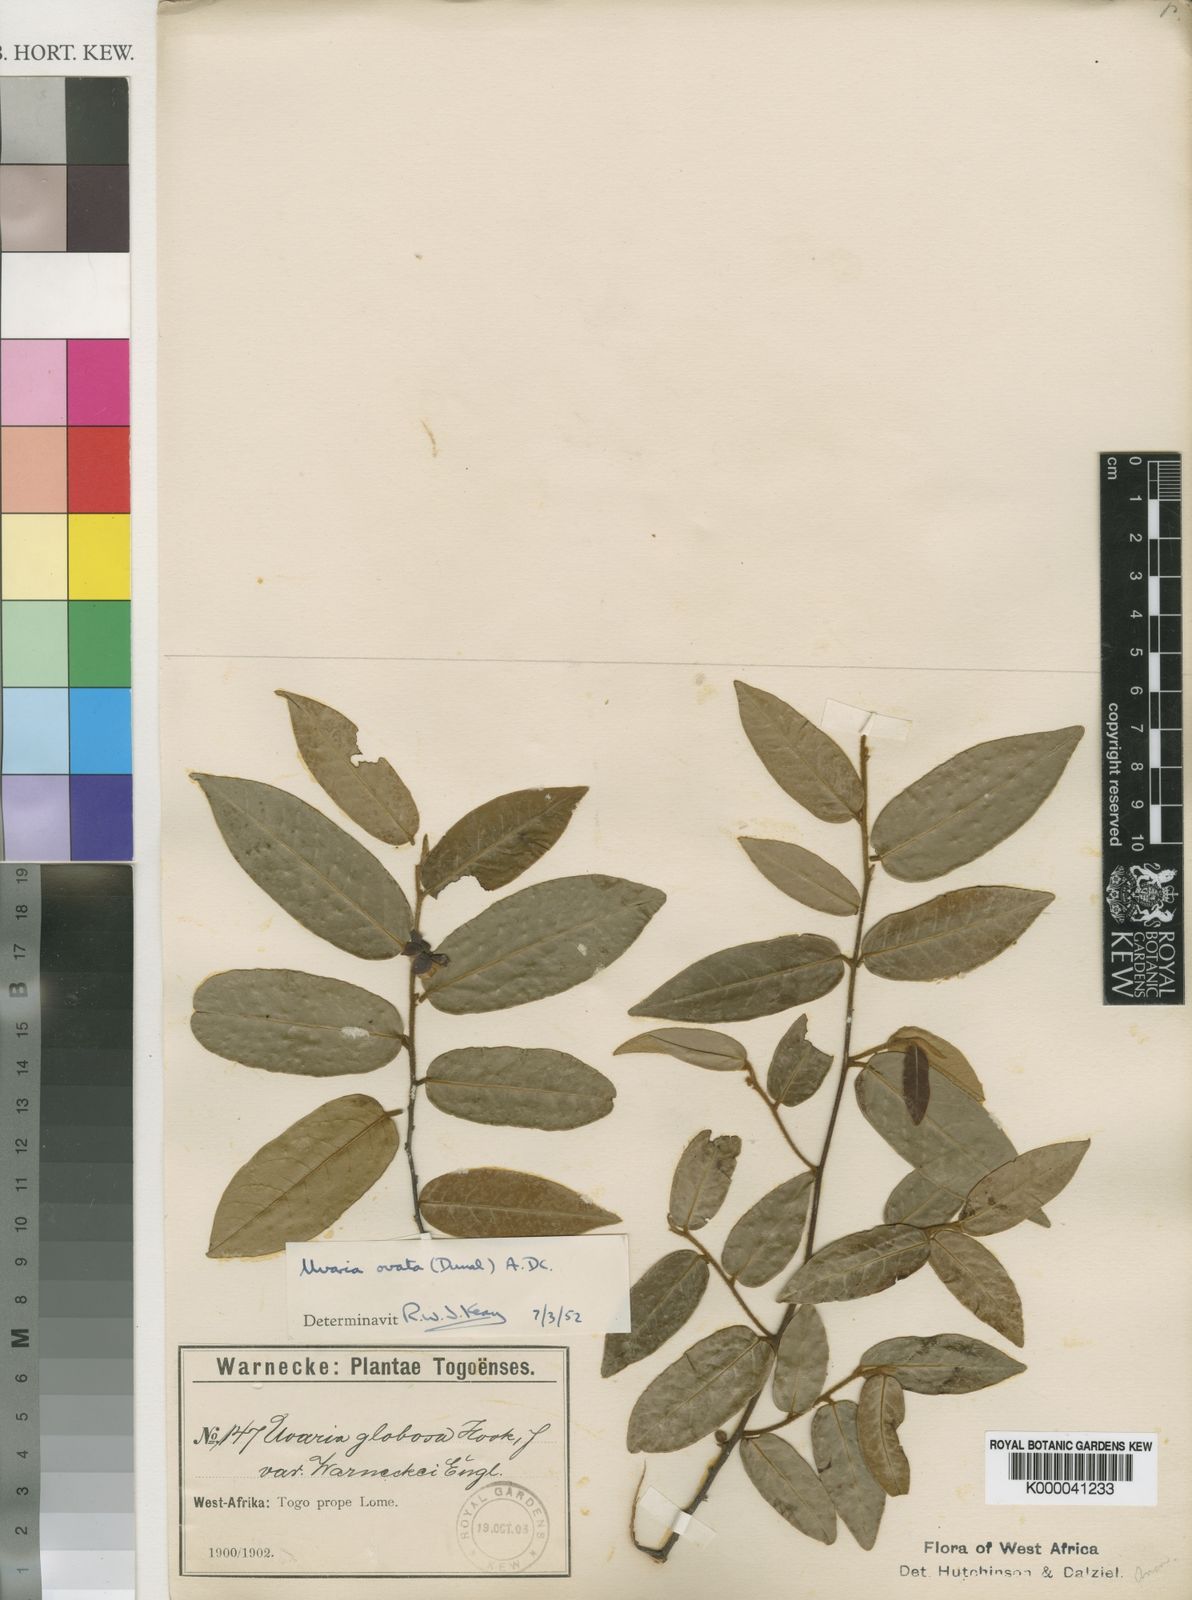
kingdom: Plantae
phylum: Tracheophyta
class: Magnoliopsida
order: Magnoliales
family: Annonaceae
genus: Uvaria
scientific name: Uvaria ovata
